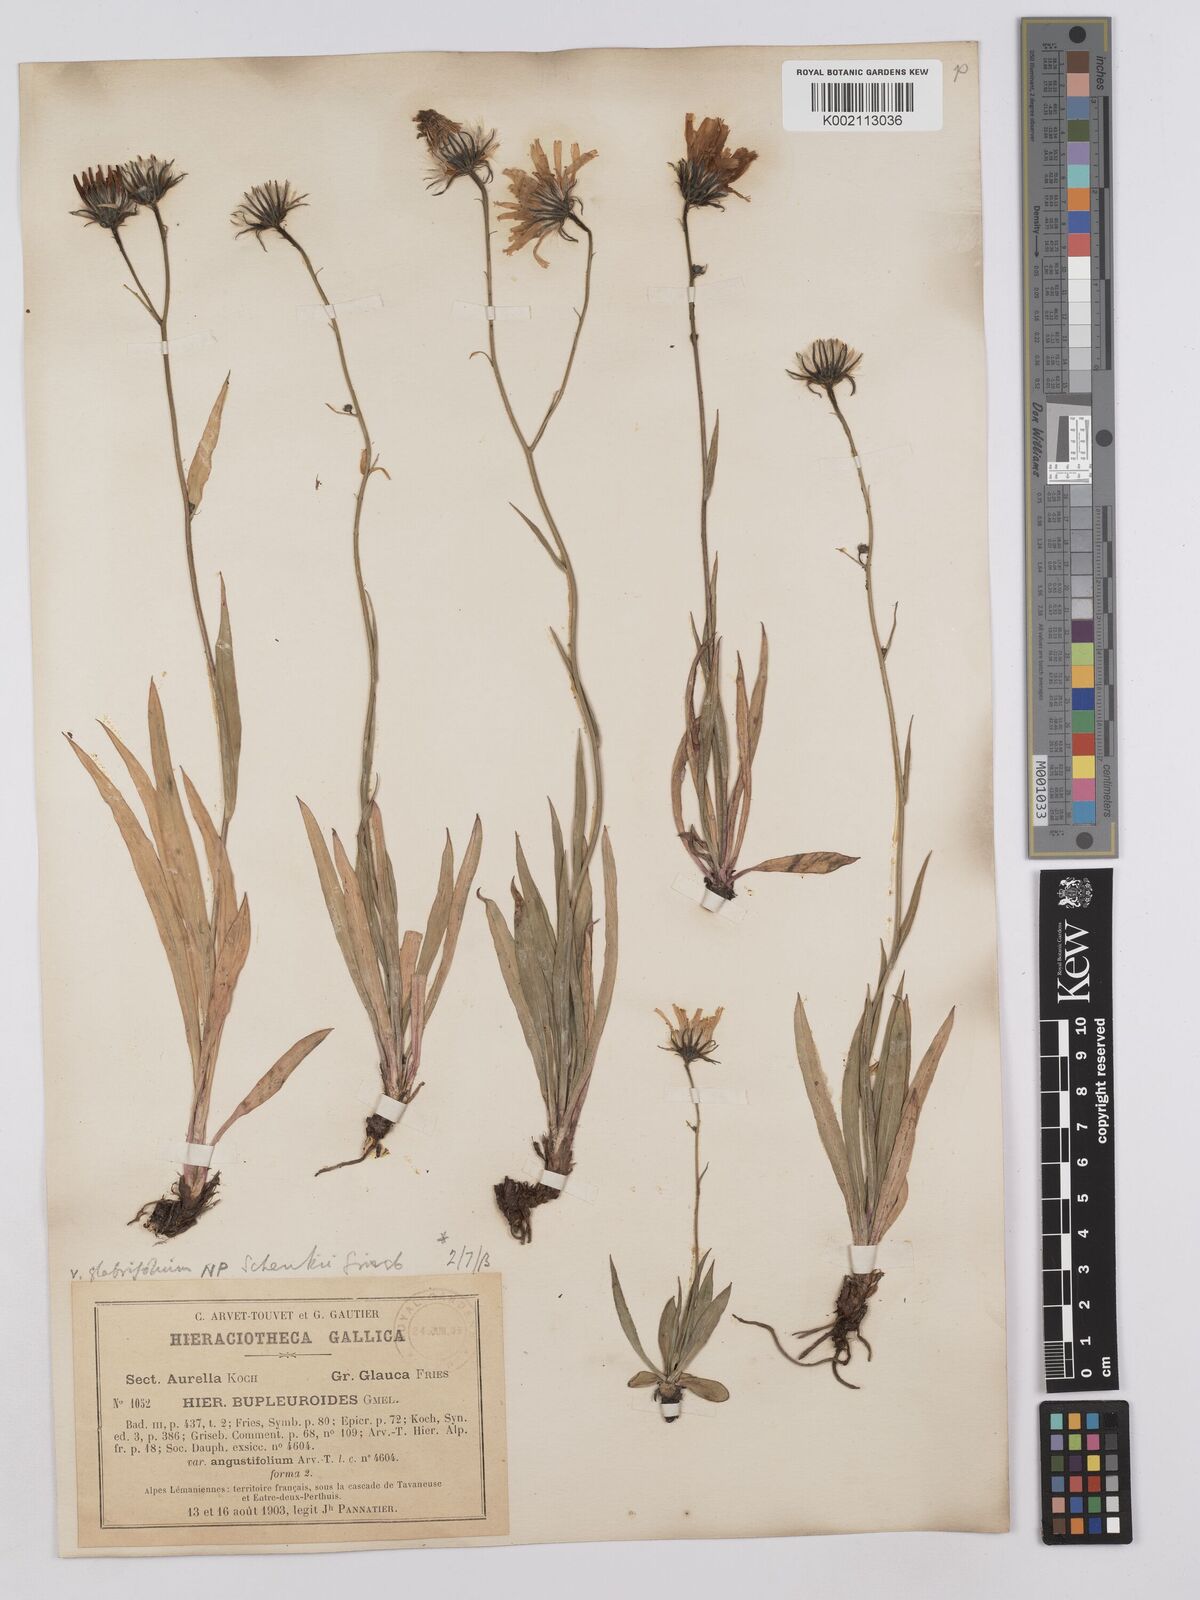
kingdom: Plantae
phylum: Tracheophyta
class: Magnoliopsida
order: Asterales
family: Asteraceae
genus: Hieracium
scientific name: Hieracium bupleuroides
